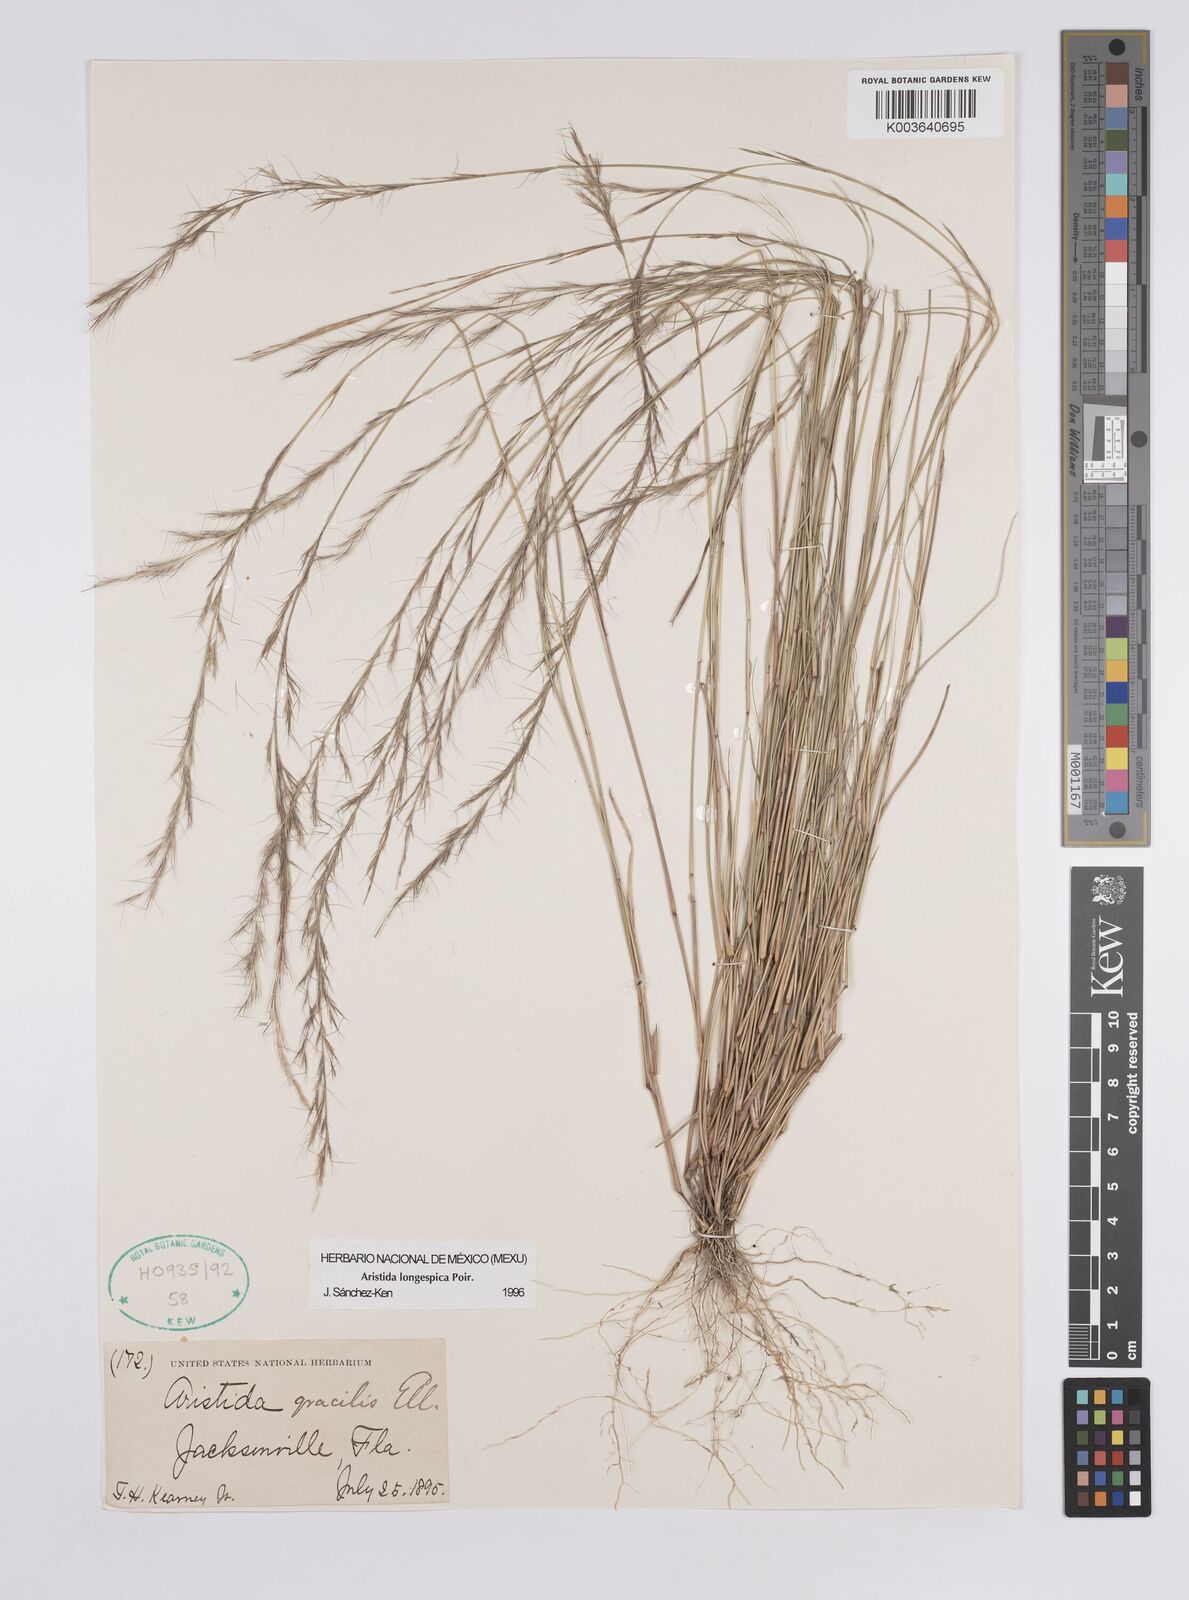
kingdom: Plantae
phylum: Tracheophyta
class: Liliopsida
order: Poales
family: Poaceae
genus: Aristida
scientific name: Aristida longespica
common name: Long-spiked triple-awned grass
